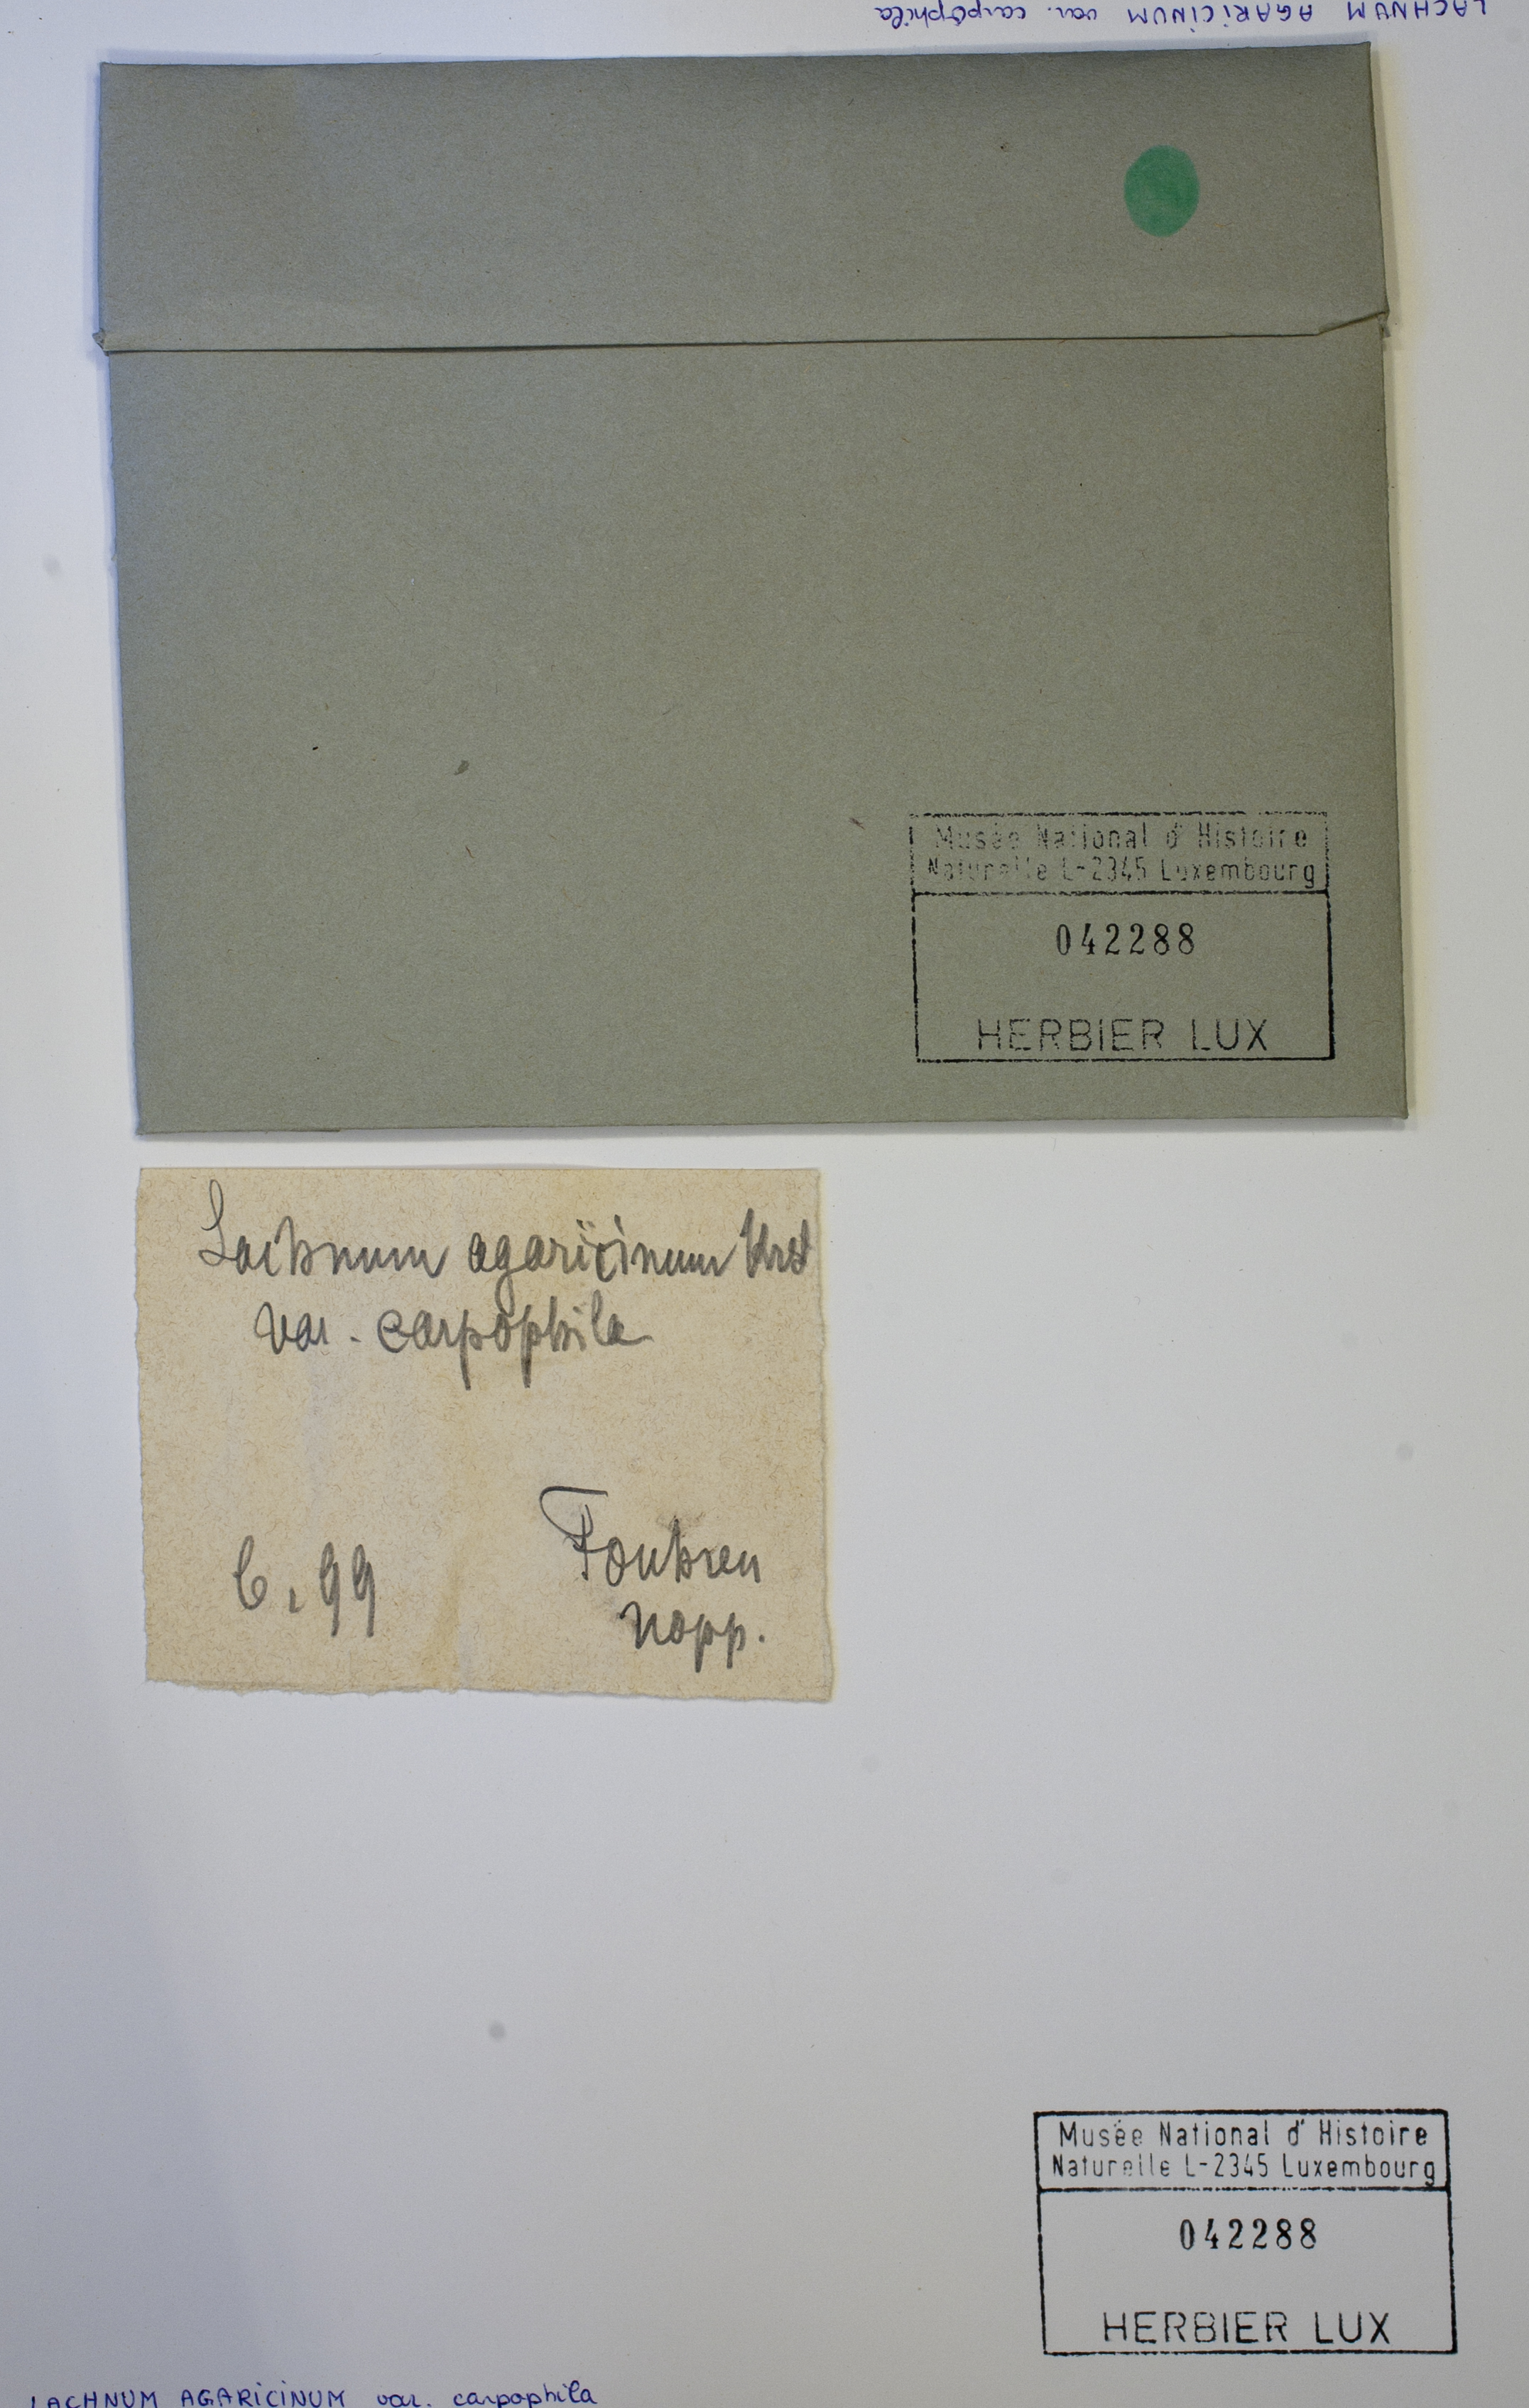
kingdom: Fungi
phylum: Ascomycota
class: Leotiomycetes
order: Helotiales
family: Lachnaceae
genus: Lachnum
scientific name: Lachnum agaricinum
